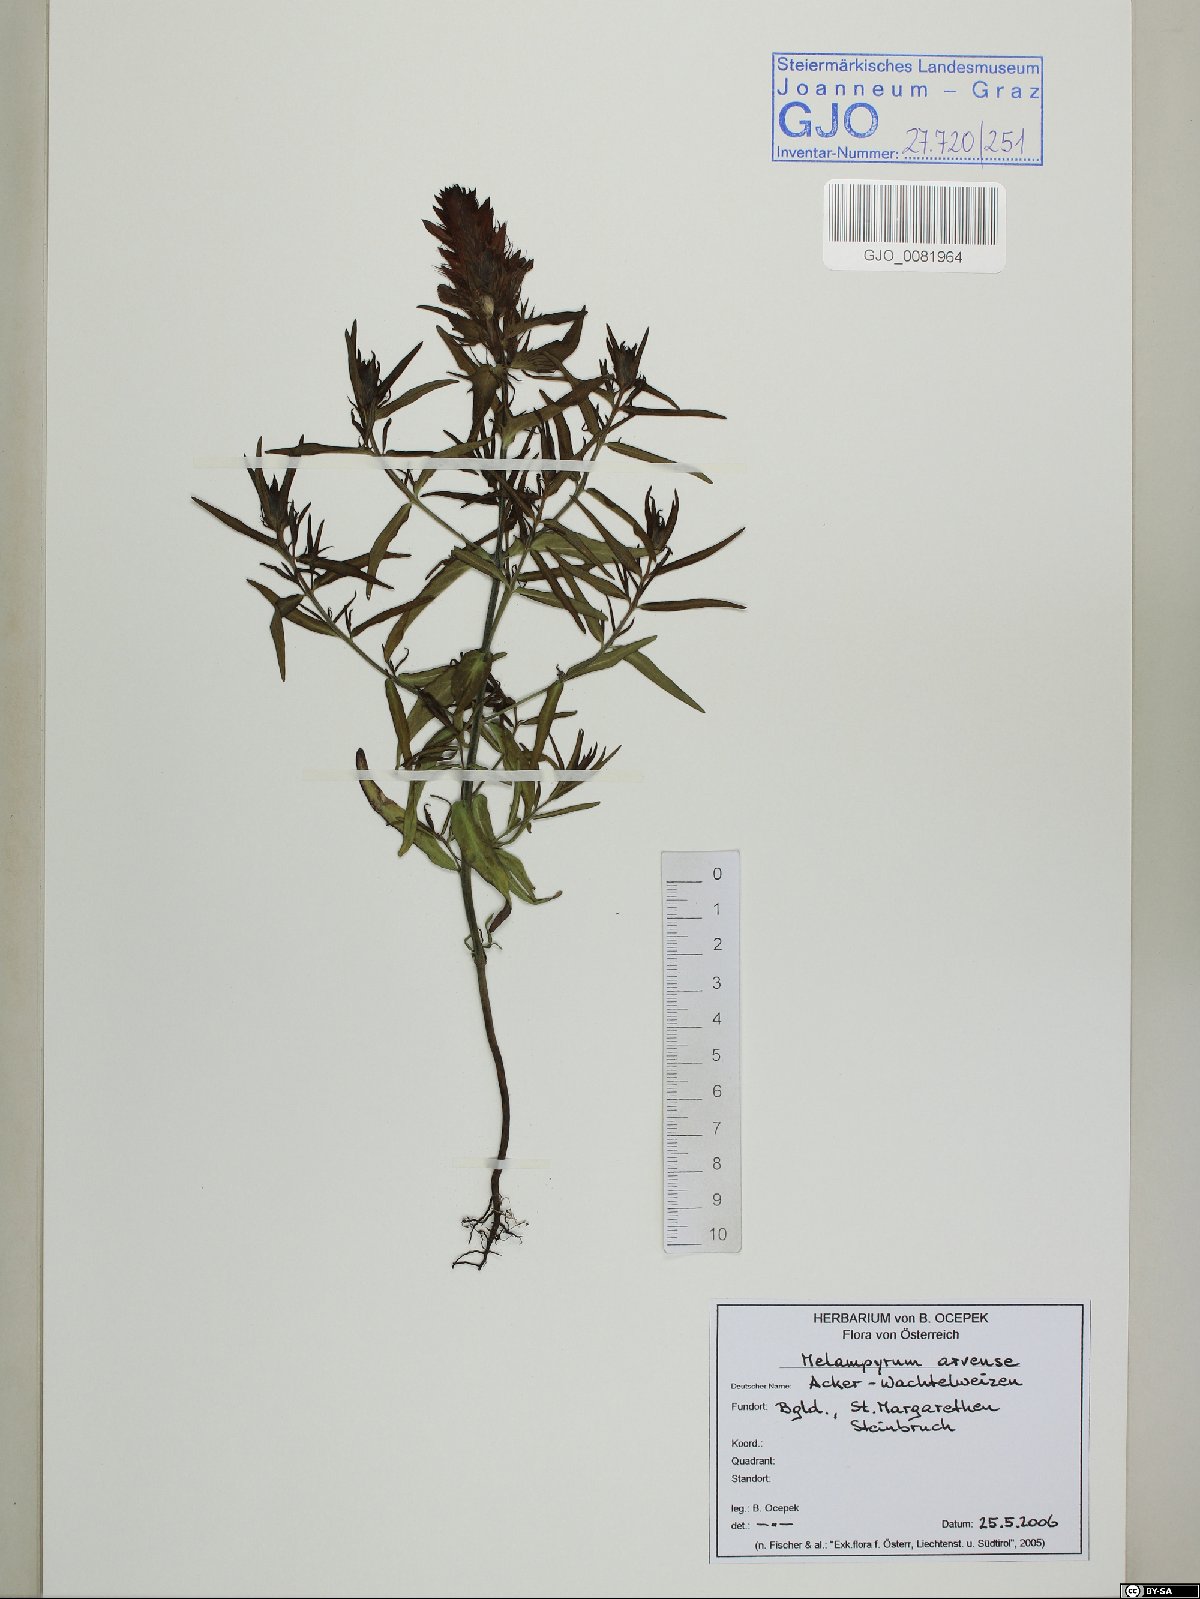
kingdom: Plantae
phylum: Tracheophyta
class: Magnoliopsida
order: Lamiales
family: Orobanchaceae
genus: Melampyrum
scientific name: Melampyrum arvense
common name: Field cow-wheat
